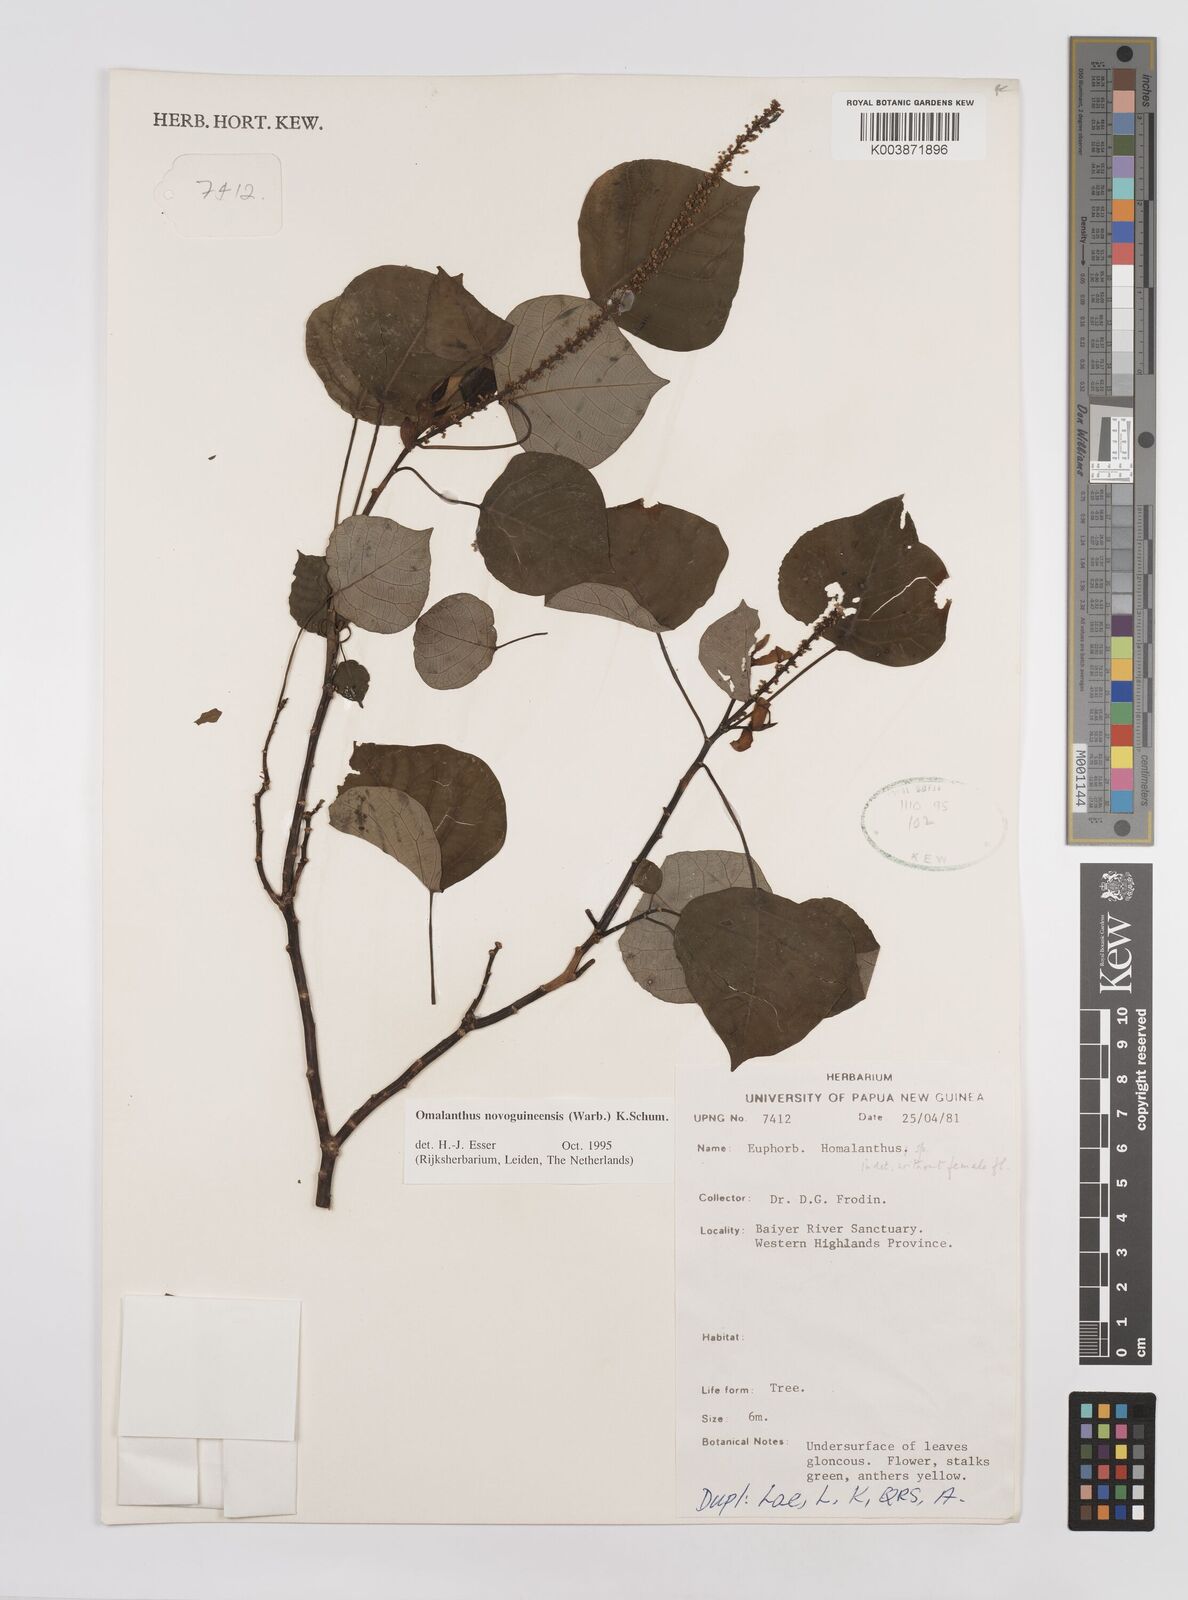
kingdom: Plantae
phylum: Tracheophyta
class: Magnoliopsida
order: Malpighiales
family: Euphorbiaceae
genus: Homalanthus
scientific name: Homalanthus novoguineensis
